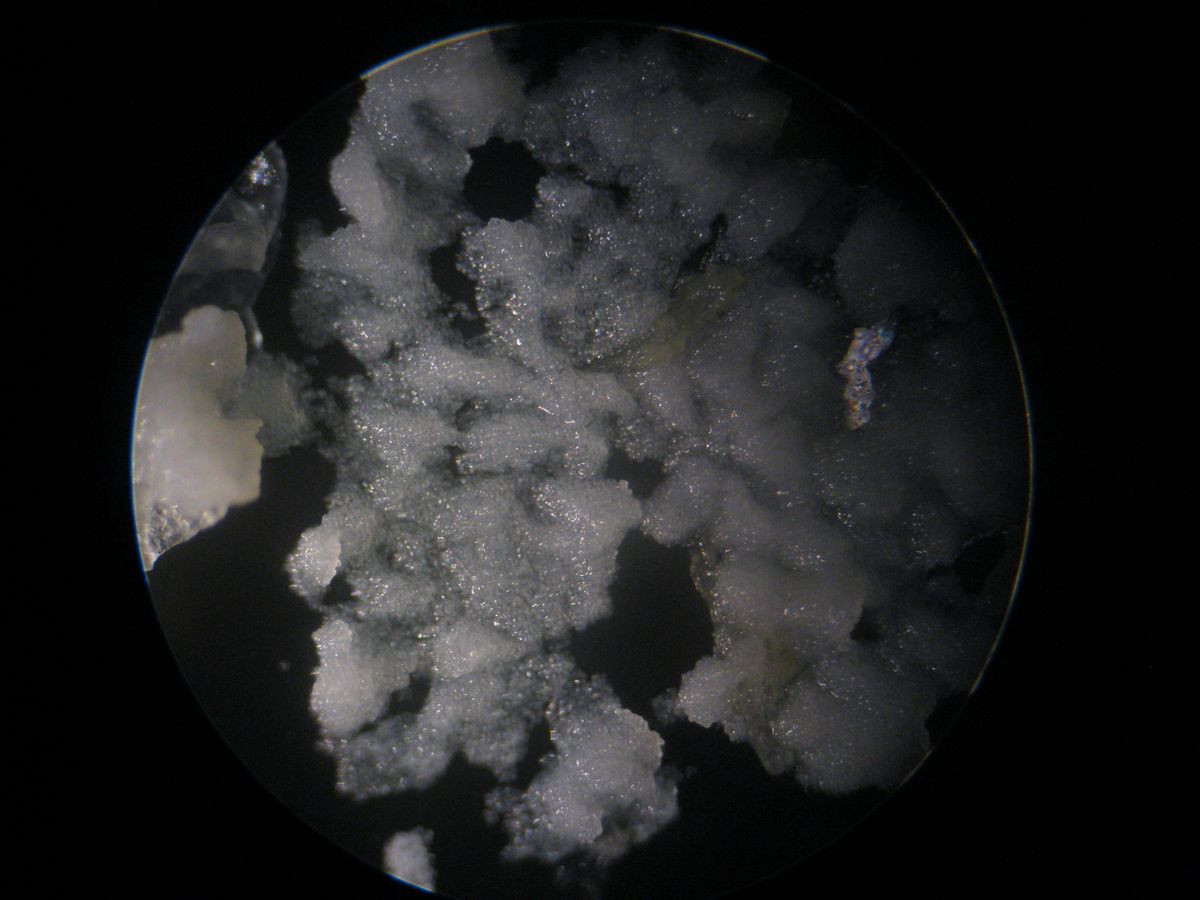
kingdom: Plantae
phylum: Tracheophyta
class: Lycopodiopsida
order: Isoetales
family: Isoetaceae
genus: Isoetes
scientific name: Isoetes lacustris
